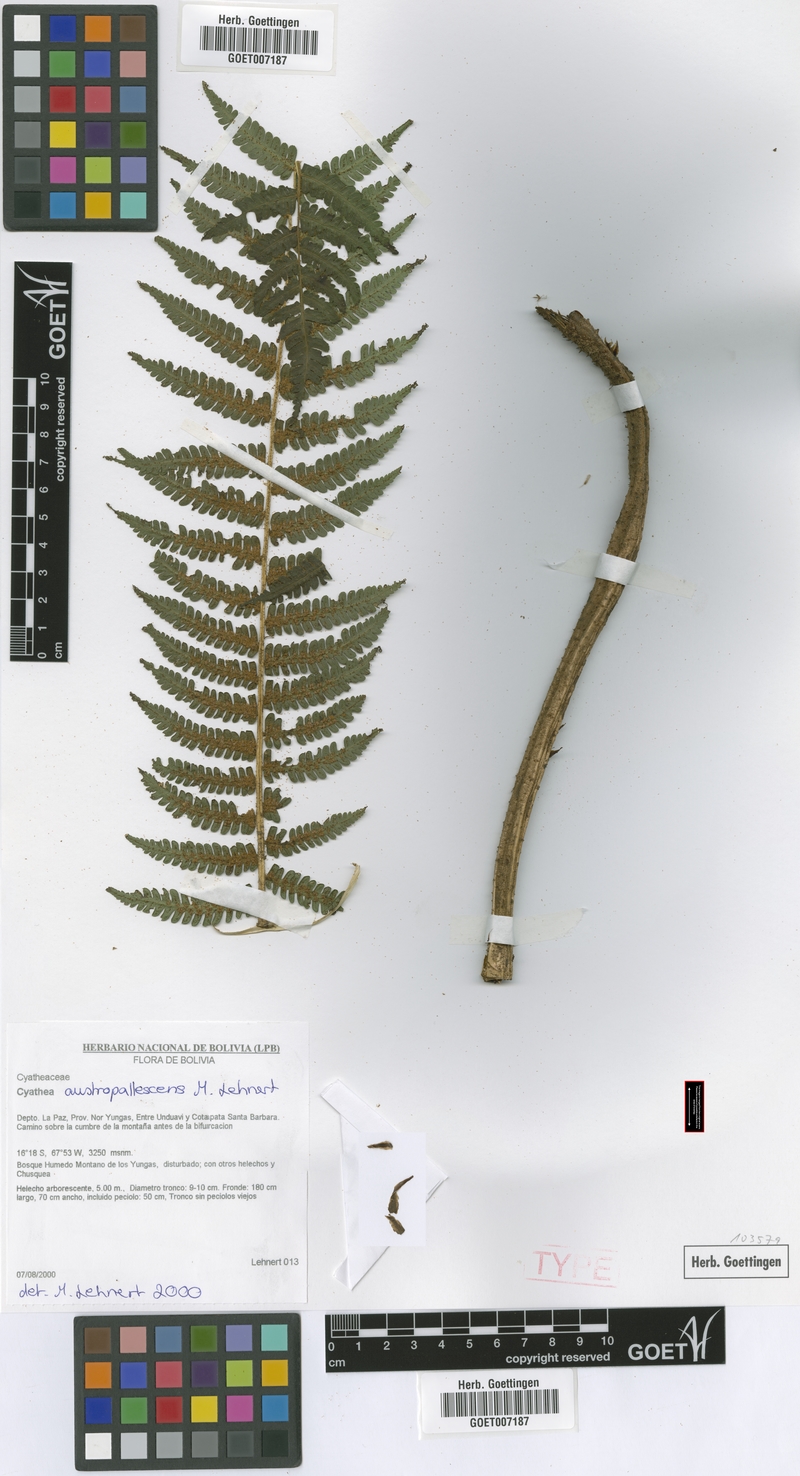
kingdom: Plantae
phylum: Tracheophyta
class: Polypodiopsida
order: Cyatheales
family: Cyatheaceae
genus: Cyathea
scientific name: Cyathea austropallescens
